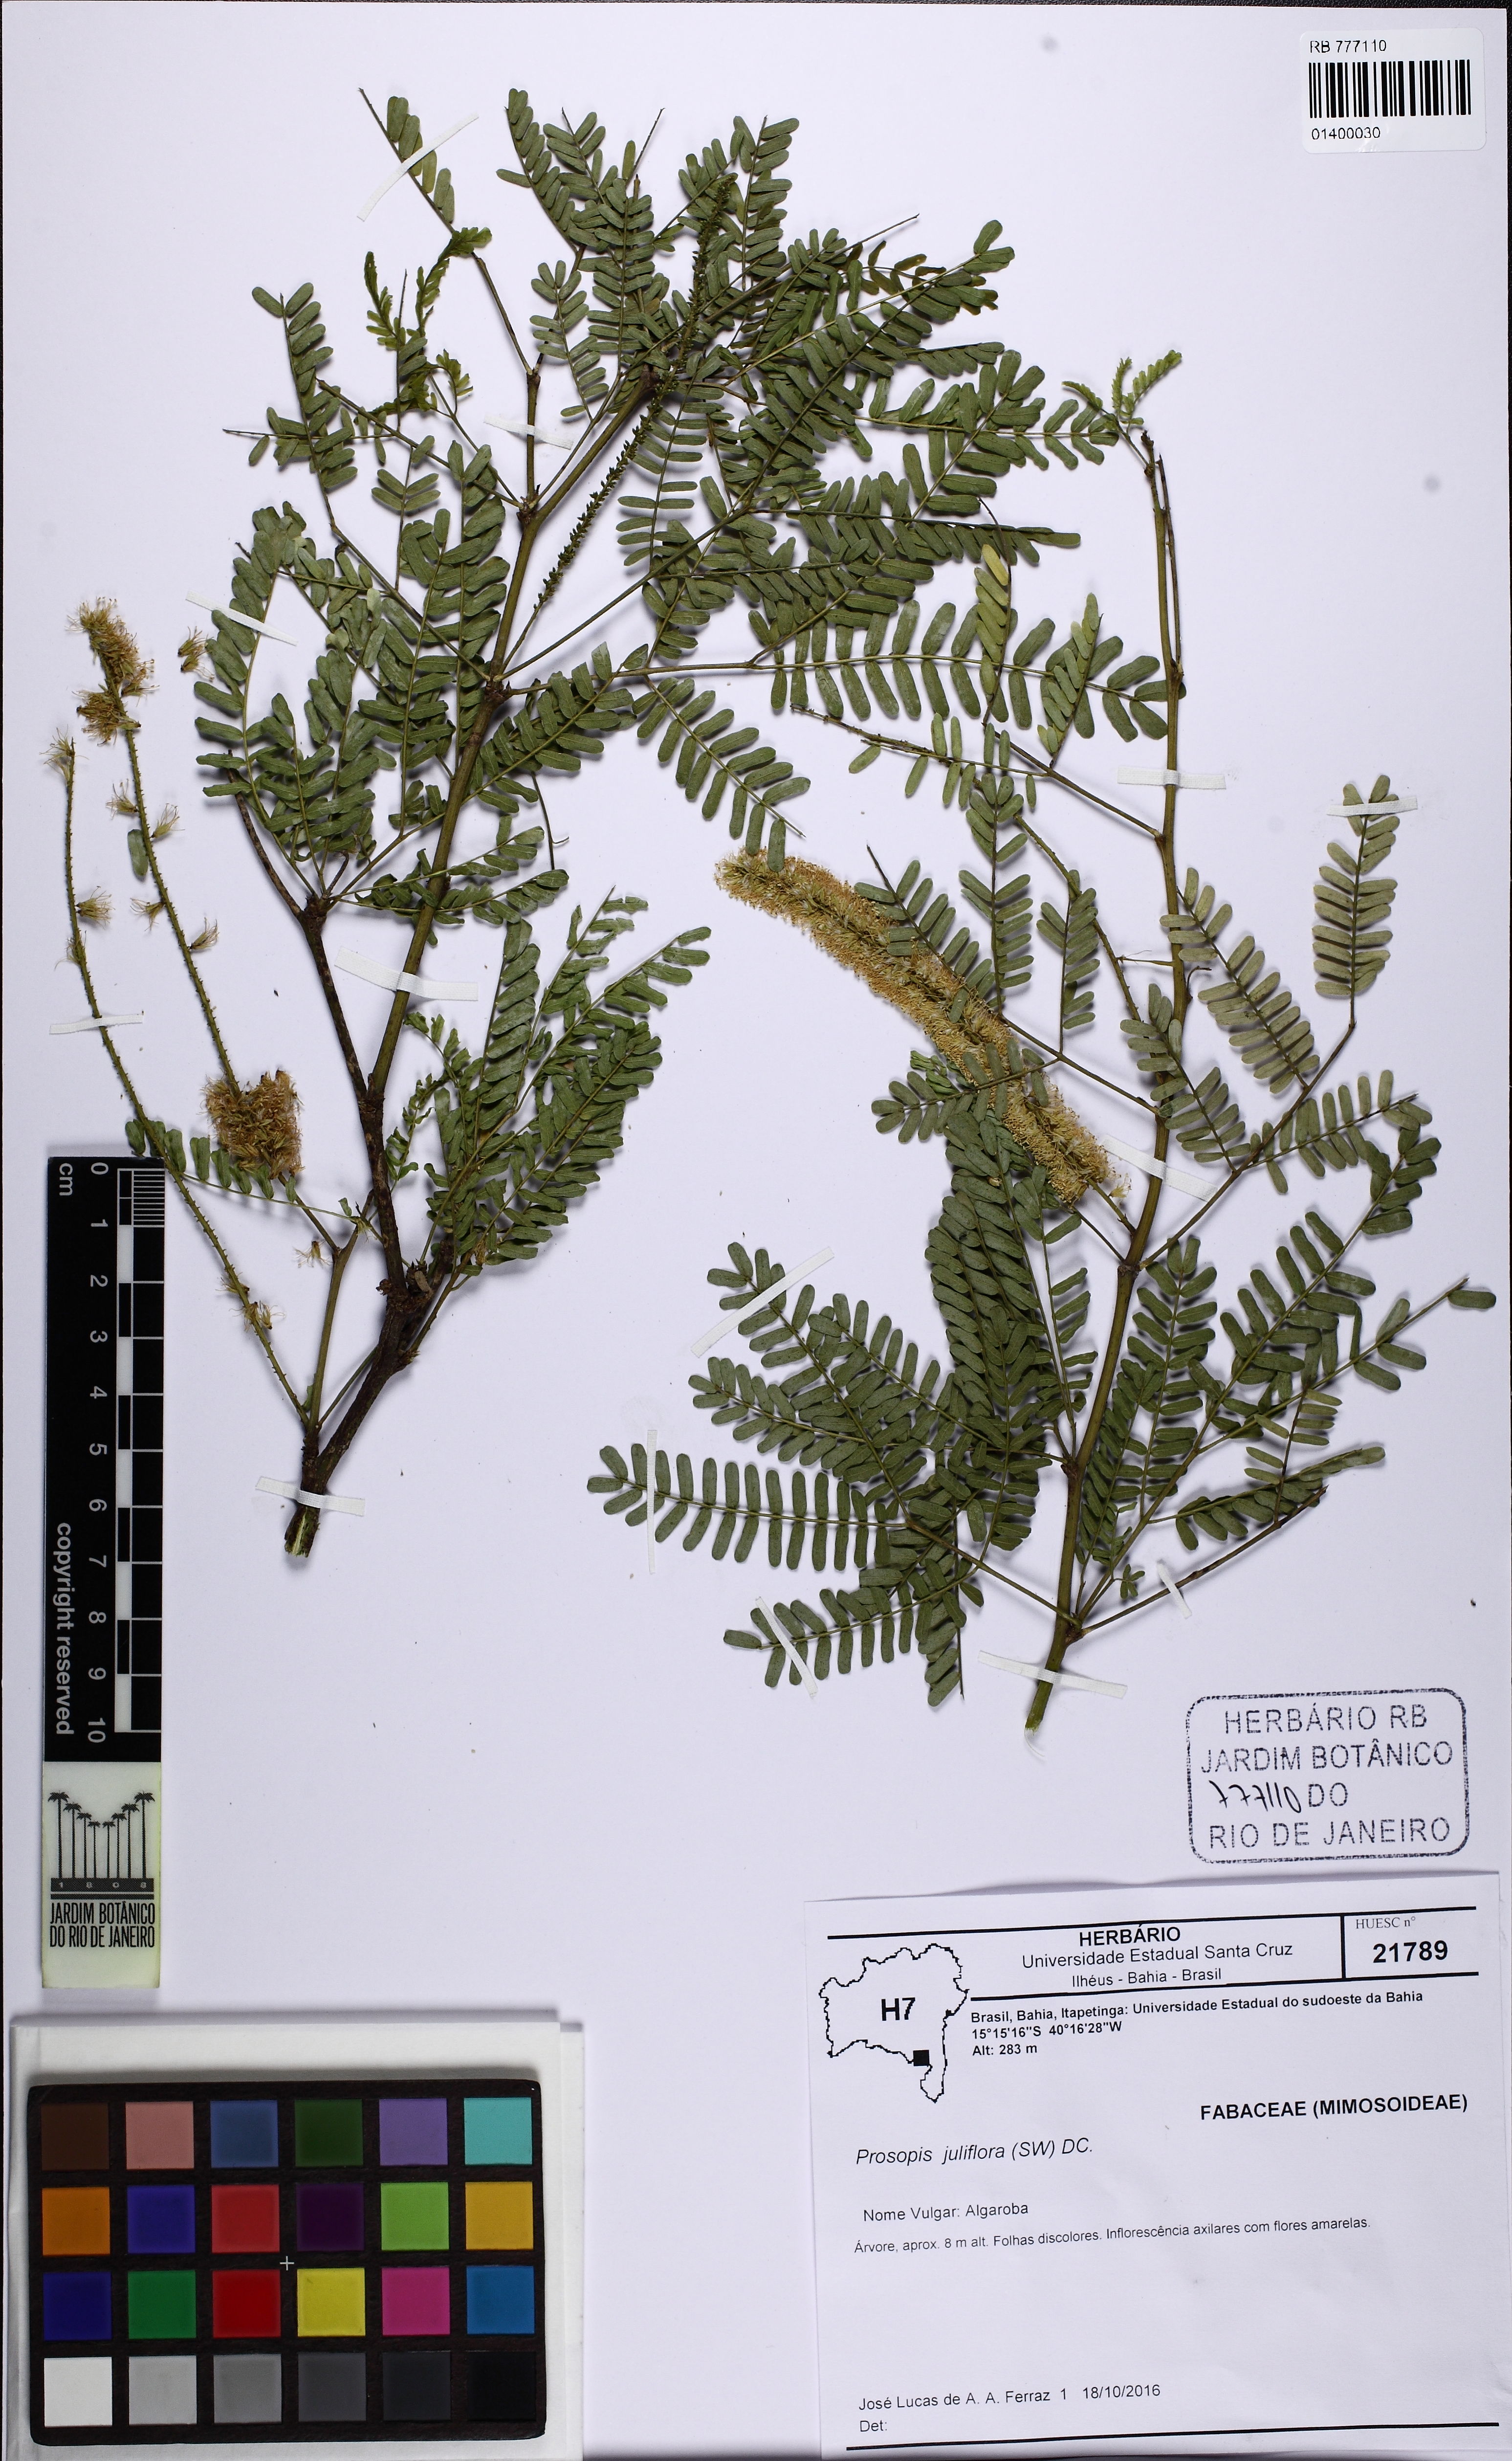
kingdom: Plantae
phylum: Tracheophyta
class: Magnoliopsida
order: Fabales
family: Fabaceae
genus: Prosopis
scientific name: Prosopis juliflora
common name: Mesquite
